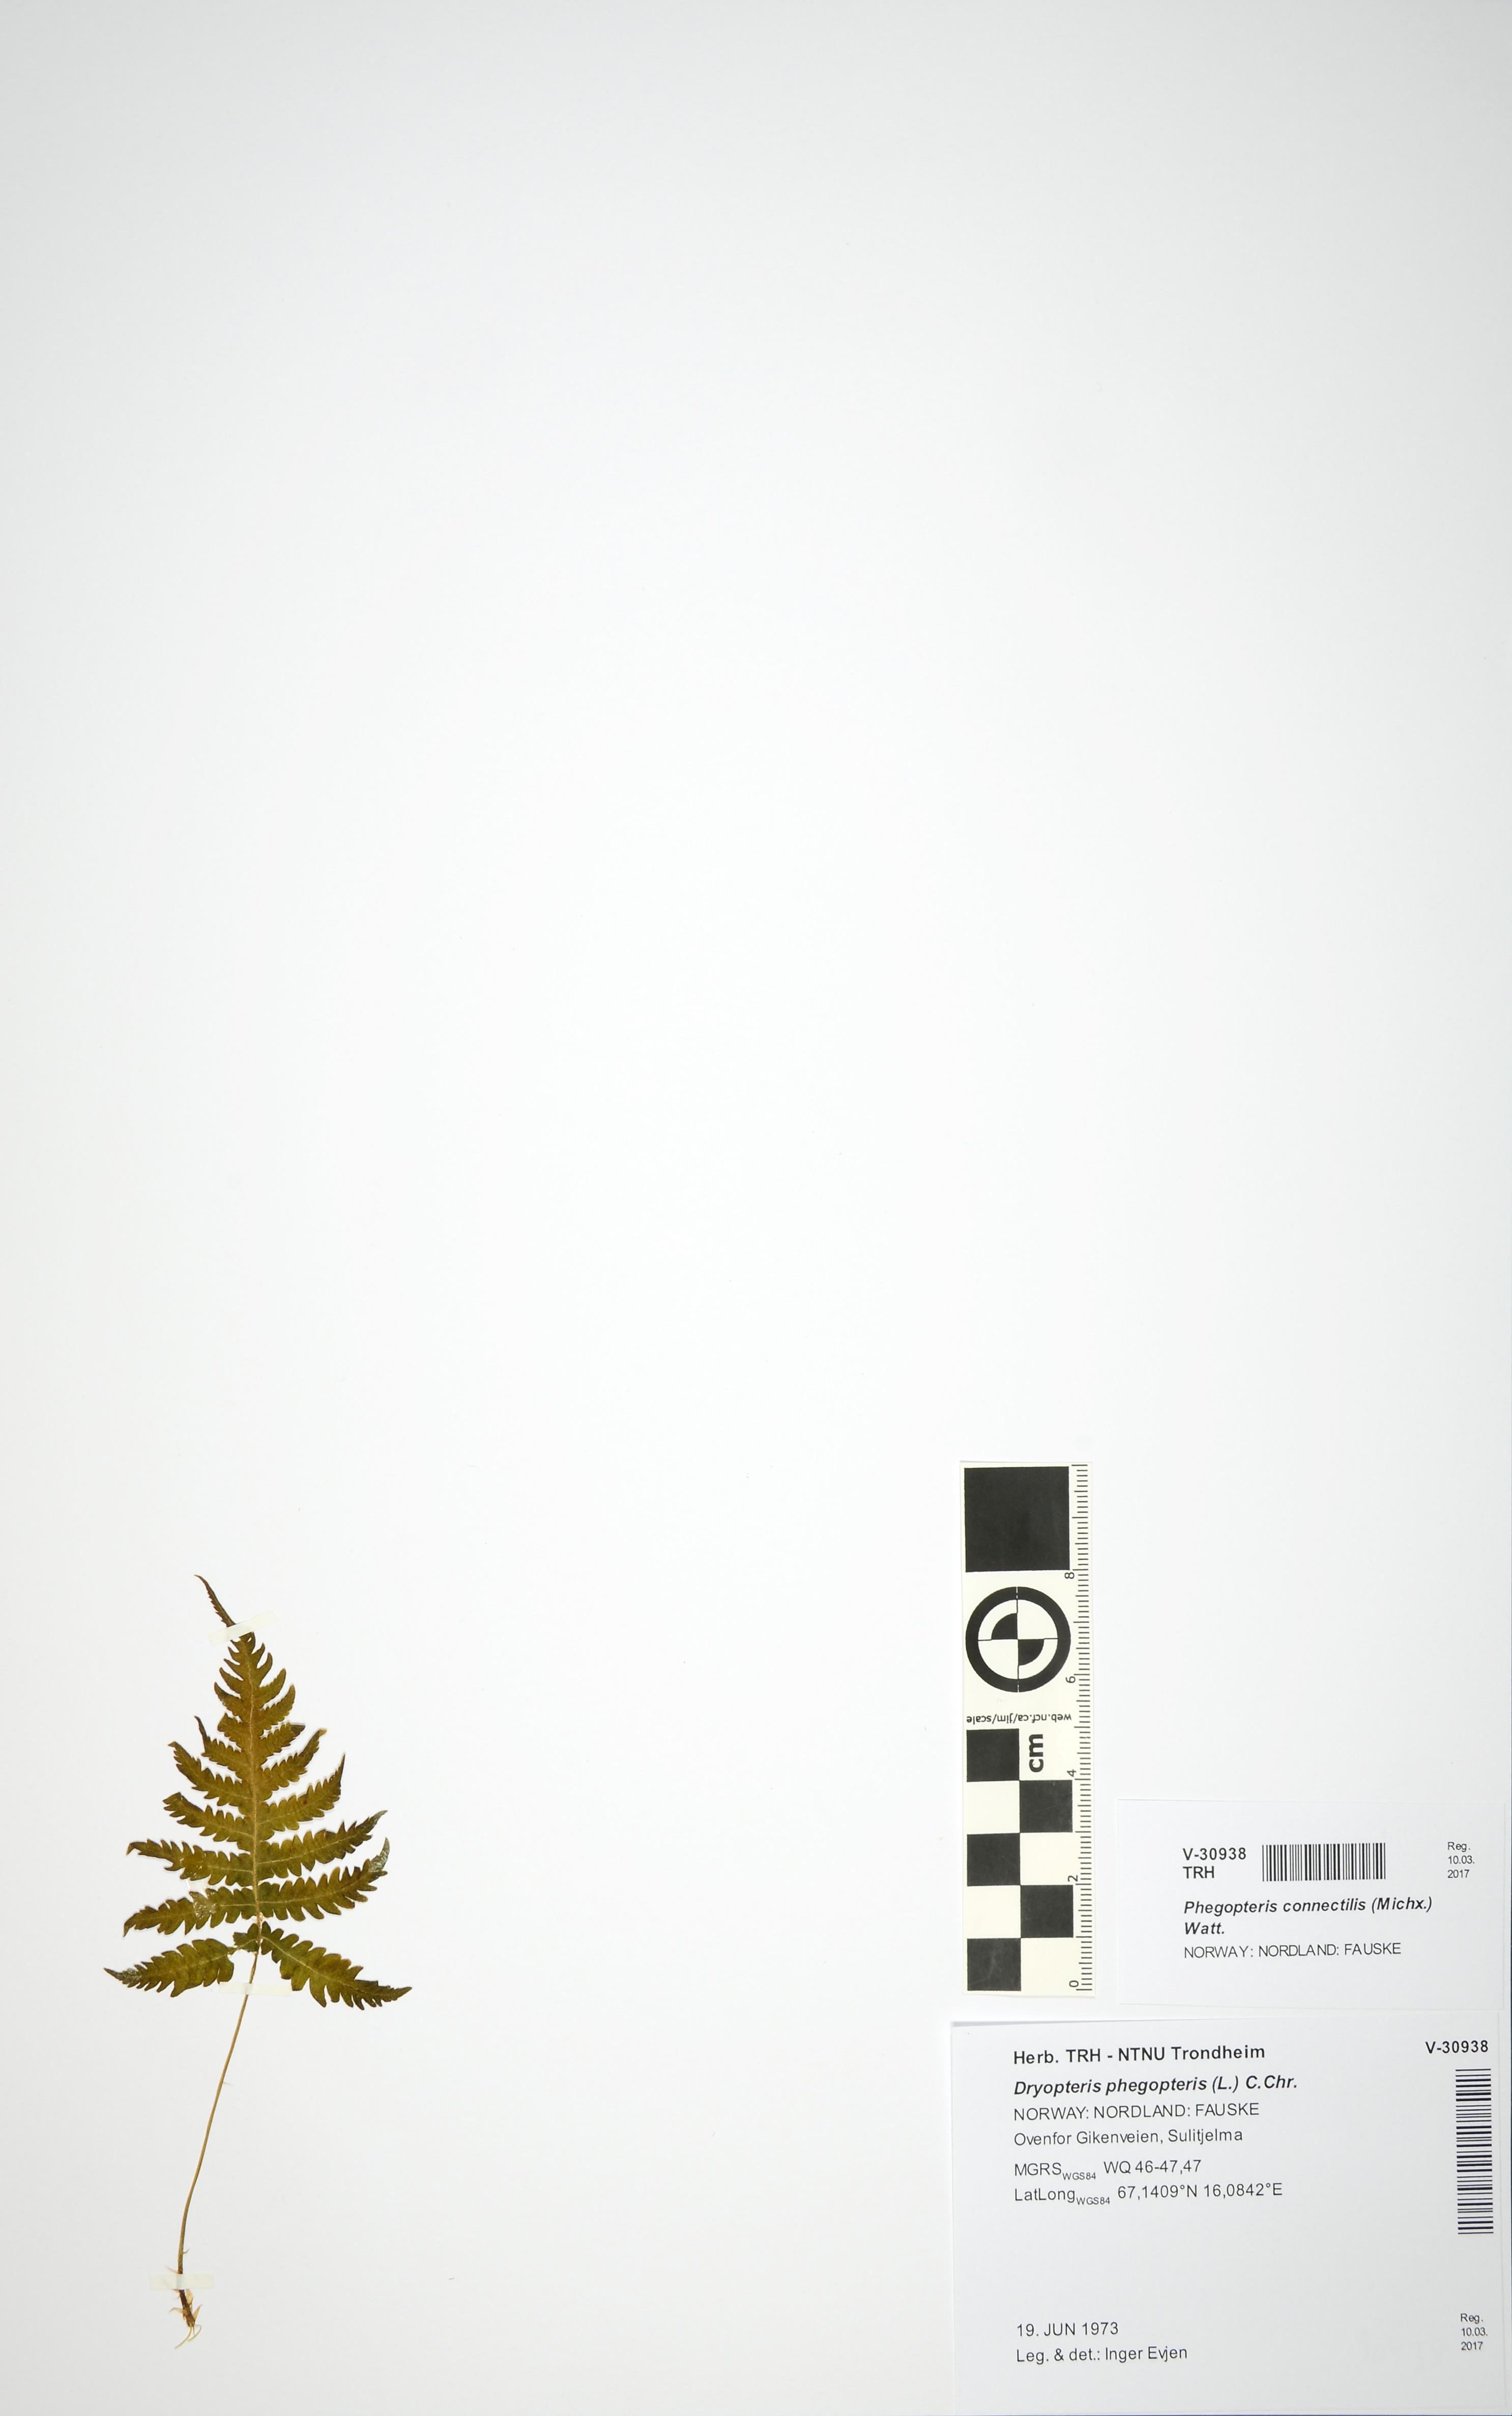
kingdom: Plantae
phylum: Tracheophyta
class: Polypodiopsida
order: Polypodiales
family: Thelypteridaceae
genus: Phegopteris
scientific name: Phegopteris connectilis
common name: Beech fern
